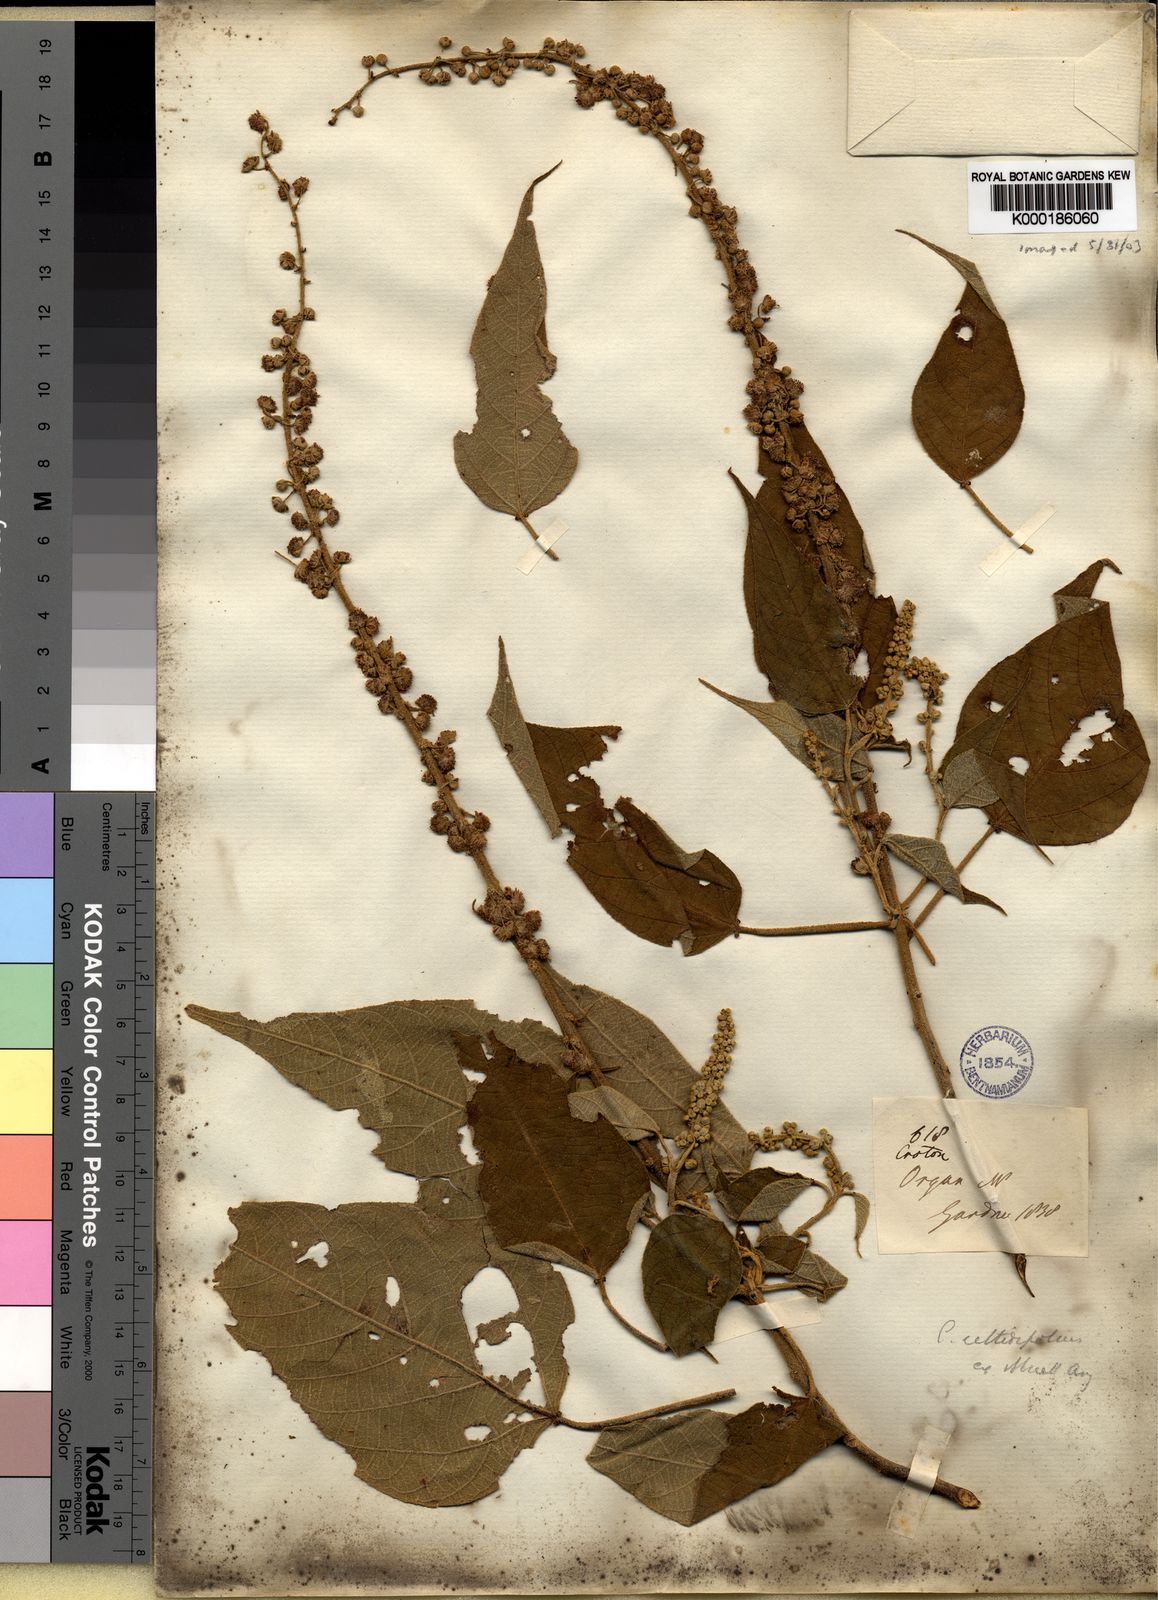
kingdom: Plantae
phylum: Tracheophyta
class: Magnoliopsida
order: Malpighiales
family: Euphorbiaceae
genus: Croton
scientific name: Croton celtidifolius
